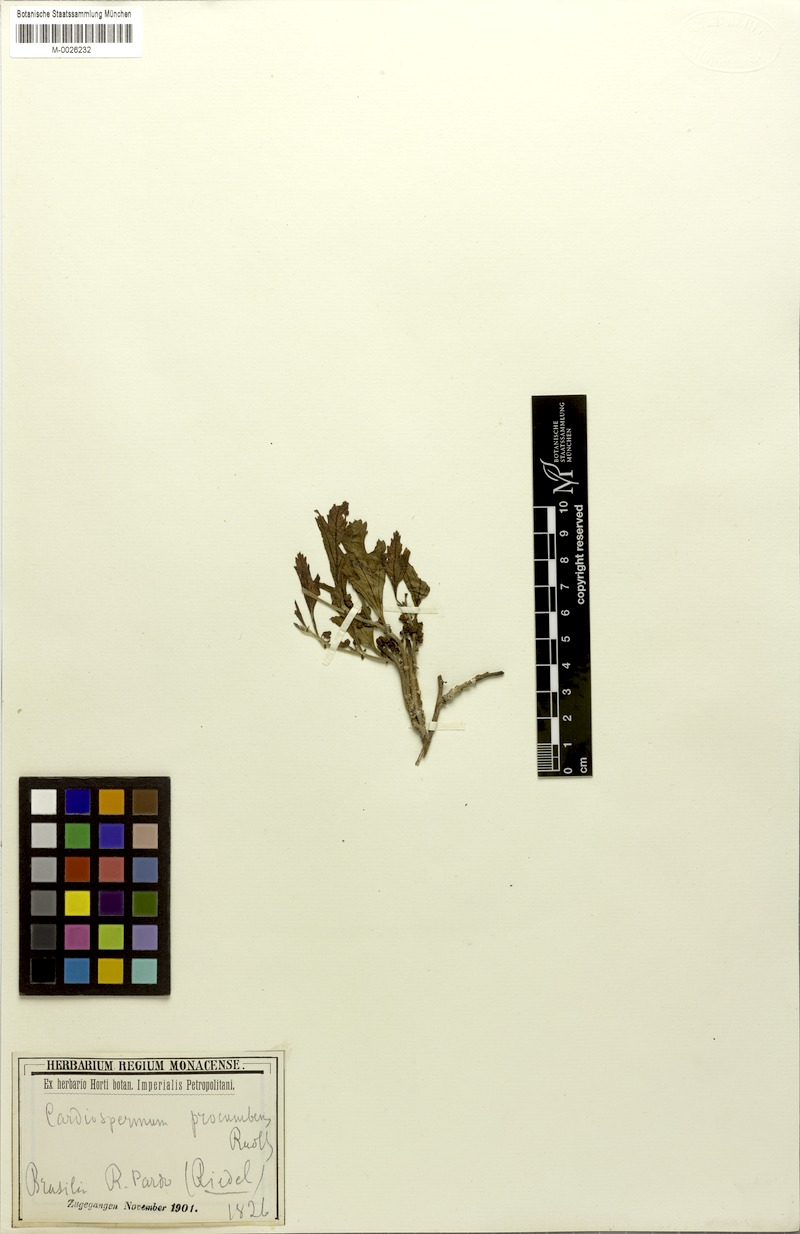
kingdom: Plantae
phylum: Tracheophyta
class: Magnoliopsida
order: Sapindales
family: Sapindaceae
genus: Urvillea
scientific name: Urvillea procumbens
